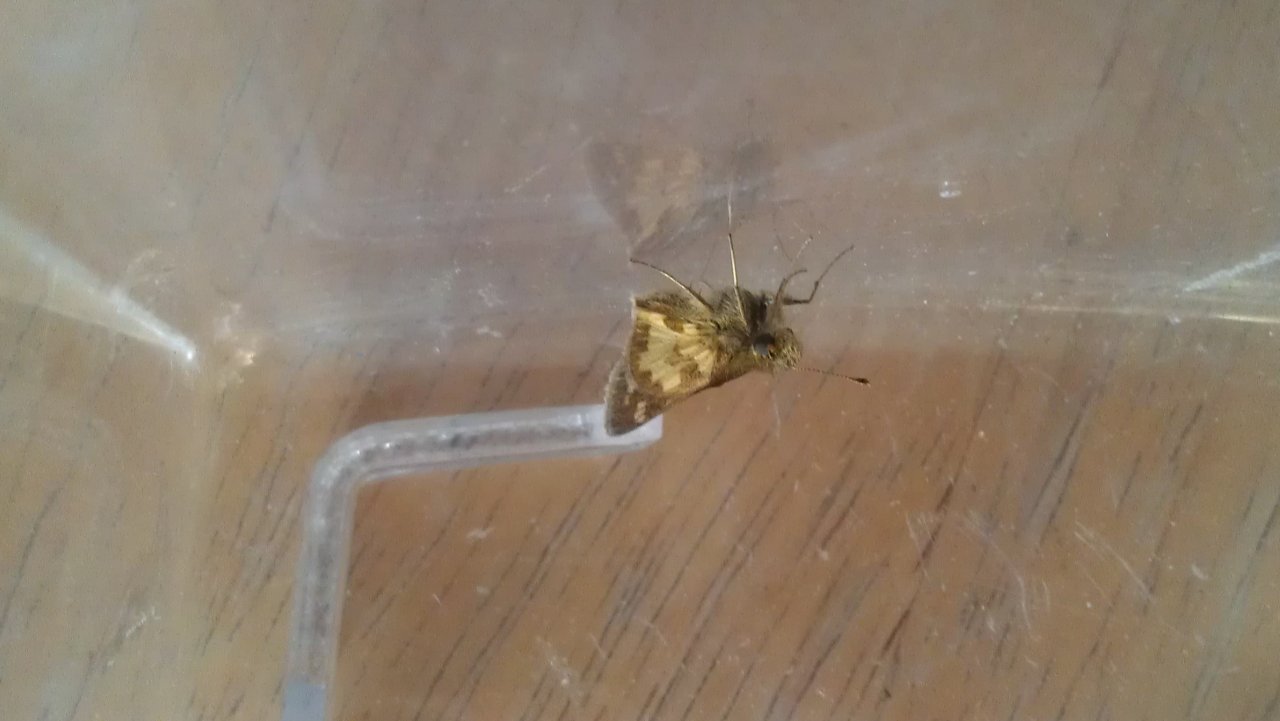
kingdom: Animalia
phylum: Arthropoda
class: Insecta
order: Lepidoptera
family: Hesperiidae
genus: Polites
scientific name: Polites coras
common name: Peck's Skipper
